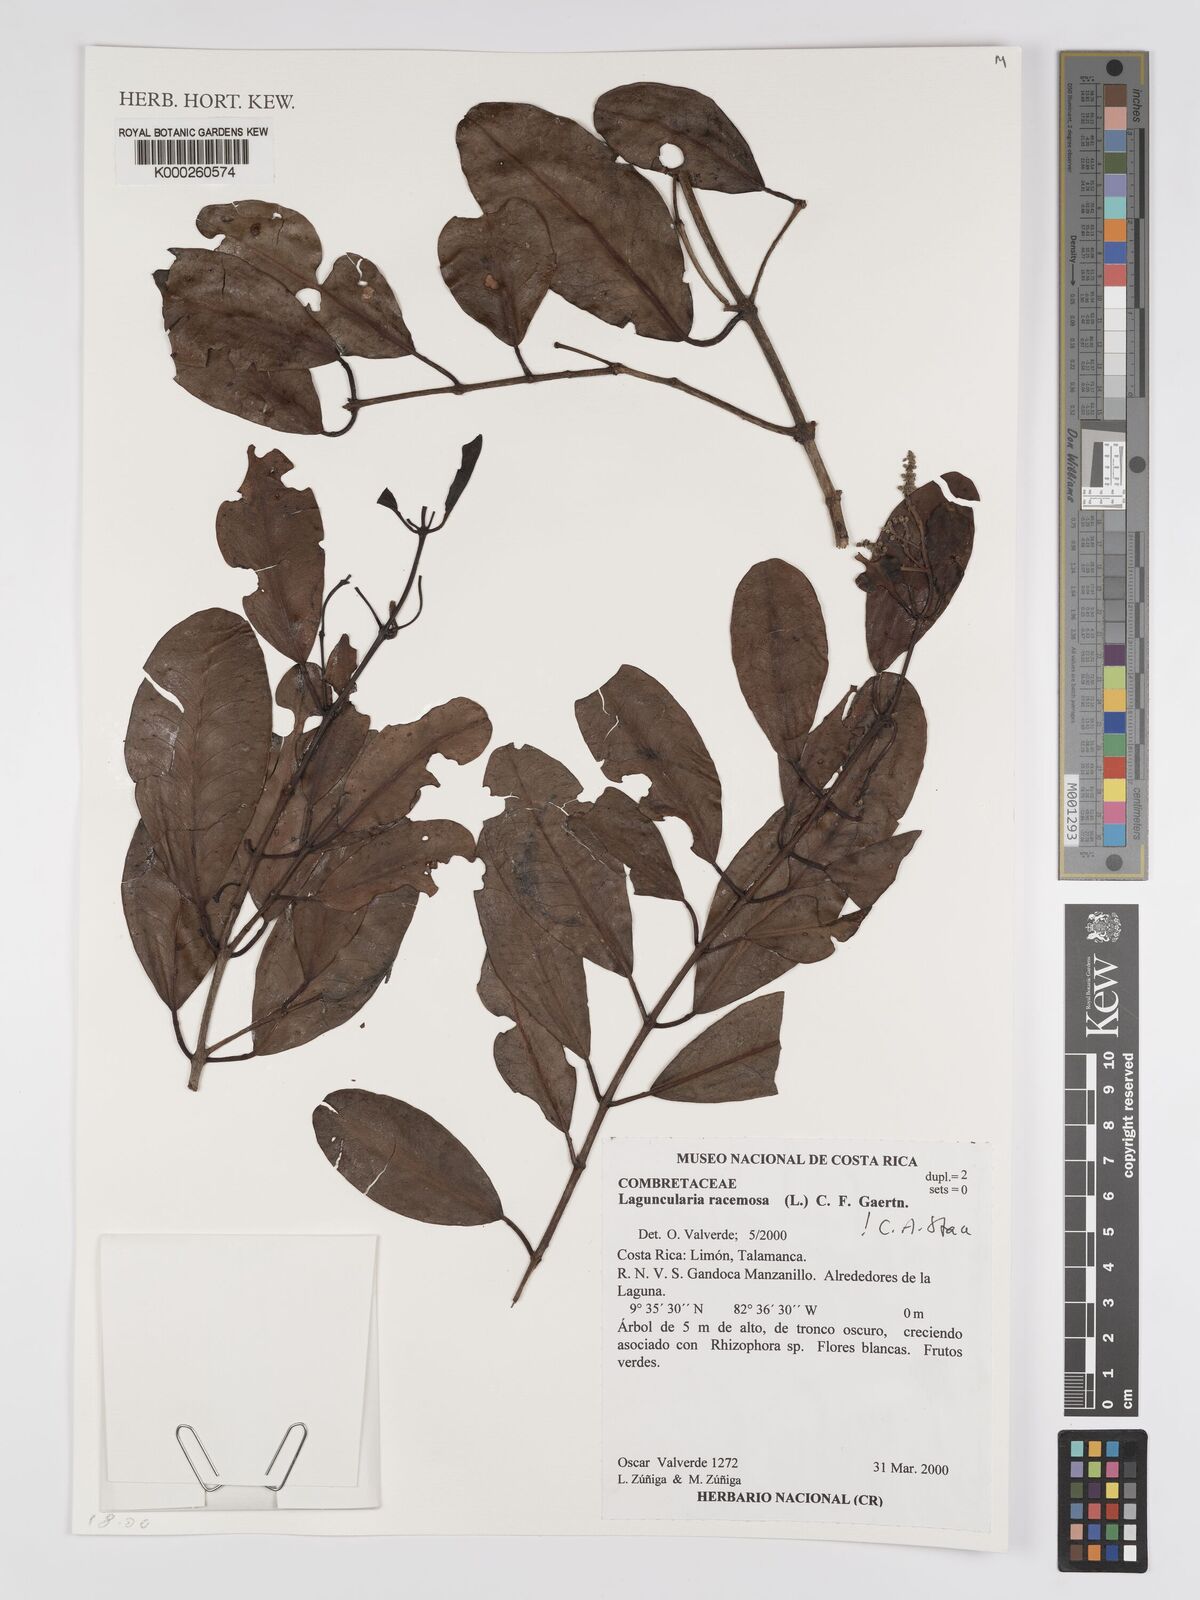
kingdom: Plantae
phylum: Tracheophyta
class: Magnoliopsida
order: Myrtales
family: Combretaceae
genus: Laguncularia
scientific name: Laguncularia racemosa
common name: White mangrove
